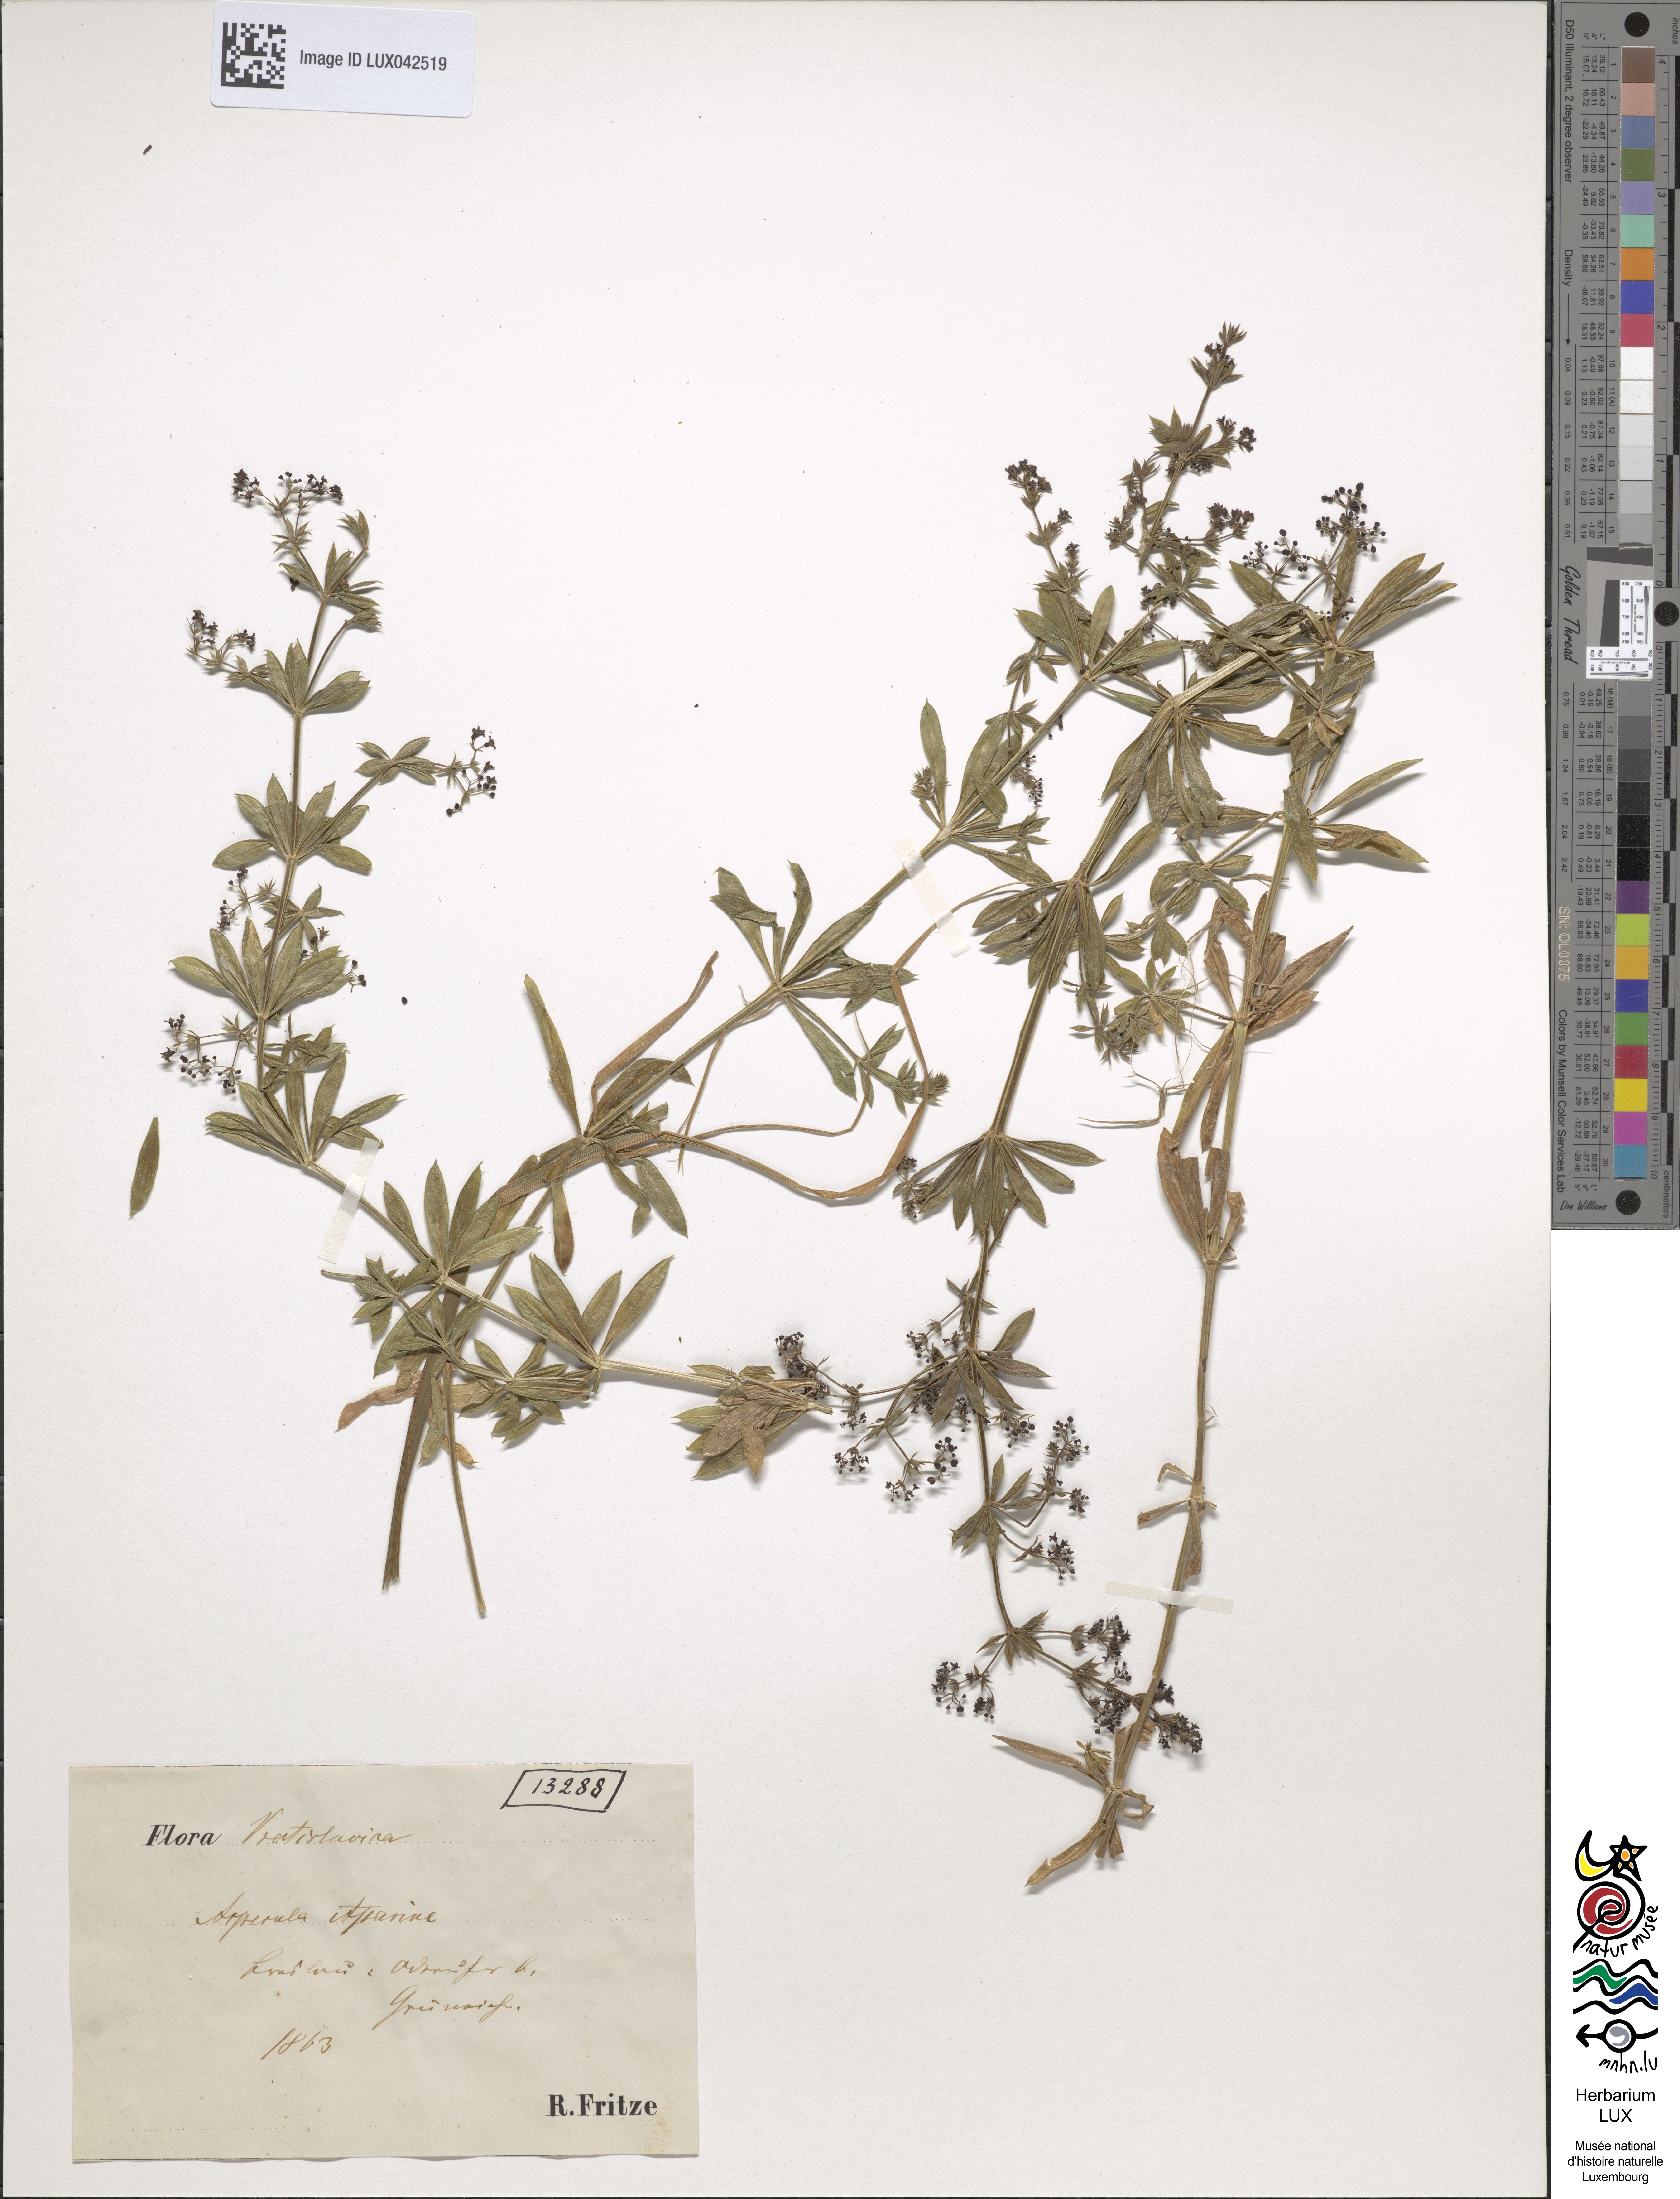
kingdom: Plantae
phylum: Tracheophyta
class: Magnoliopsida
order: Gentianales
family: Rubiaceae
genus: Galium
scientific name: Galium rivale
